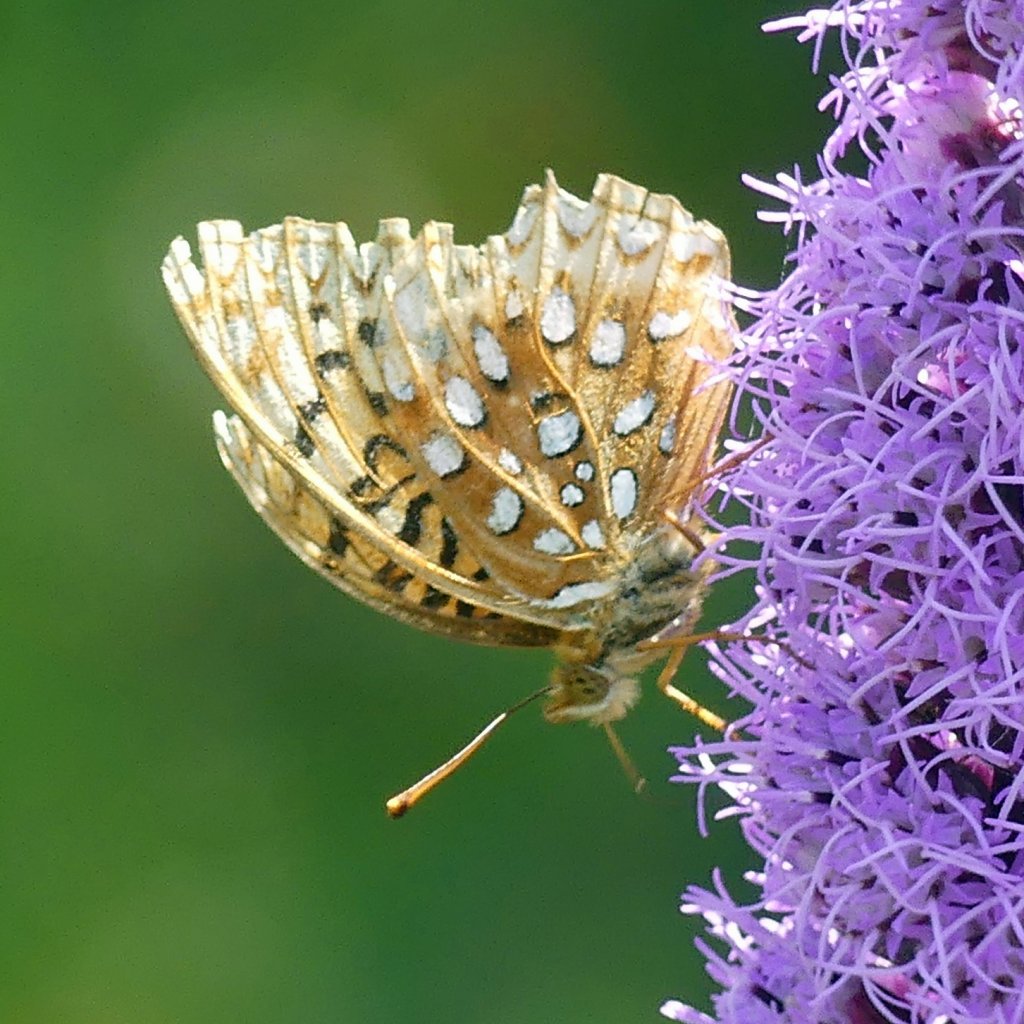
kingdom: Animalia
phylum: Arthropoda
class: Insecta
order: Lepidoptera
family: Nymphalidae
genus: Speyeria
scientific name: Speyeria cybele
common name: Great Spangled Fritillary
